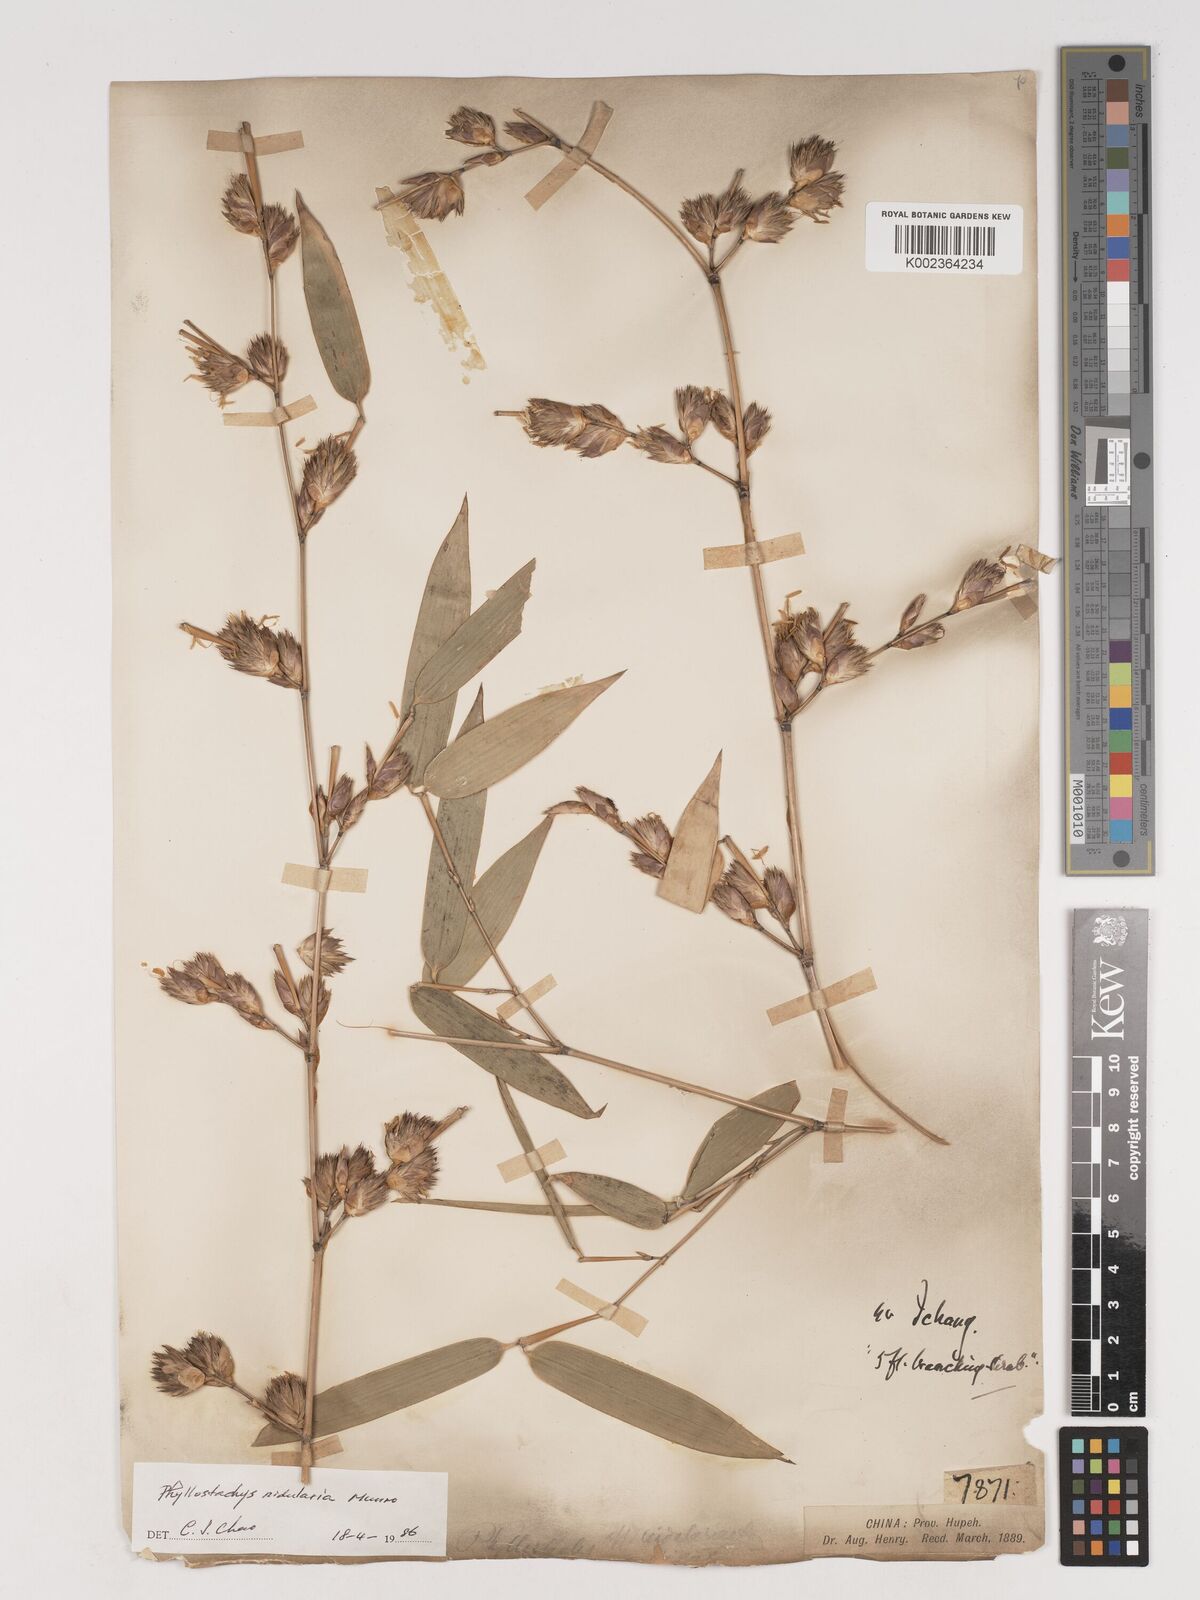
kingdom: Plantae
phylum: Tracheophyta
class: Liliopsida
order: Poales
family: Poaceae
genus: Phyllostachys
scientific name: Phyllostachys nidularia
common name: Broom bamboo
